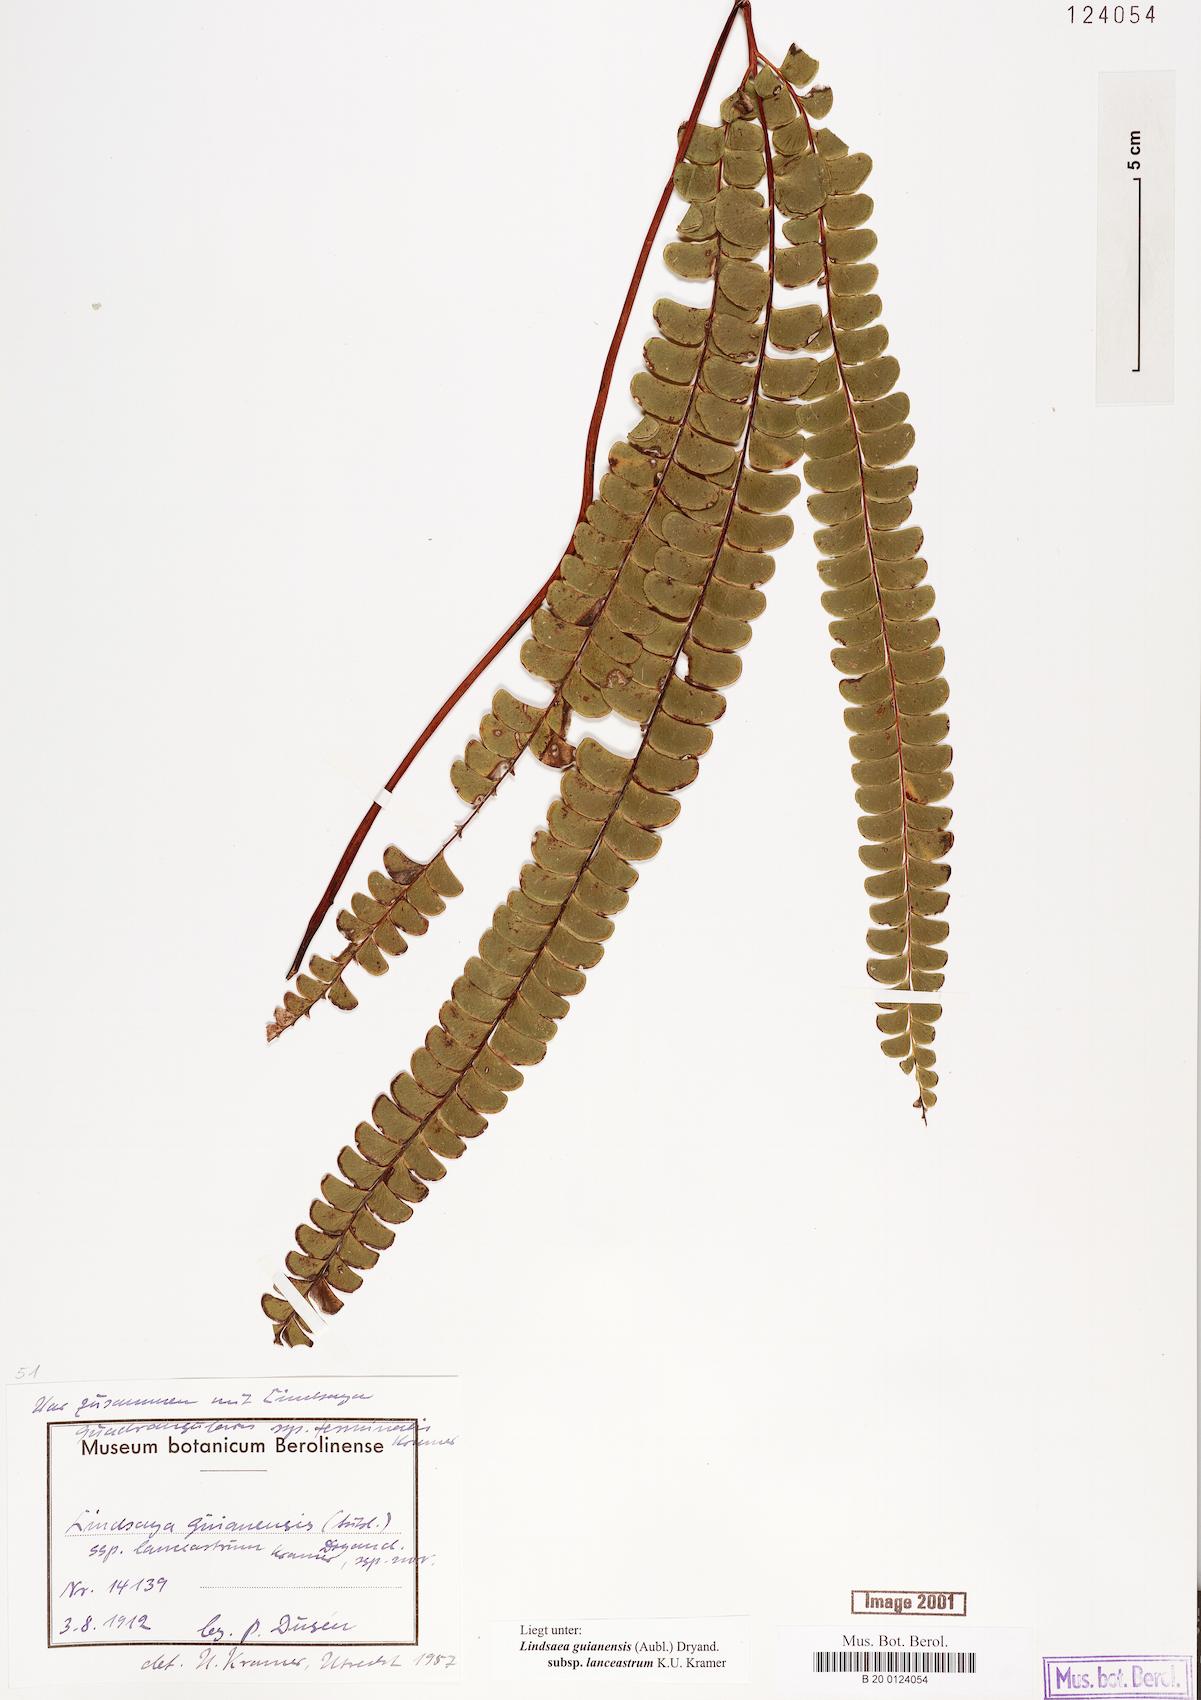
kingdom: Plantae
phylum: Tracheophyta
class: Polypodiopsida
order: Polypodiales
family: Lindsaeaceae
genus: Lindsaea
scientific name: Lindsaea guianensis
